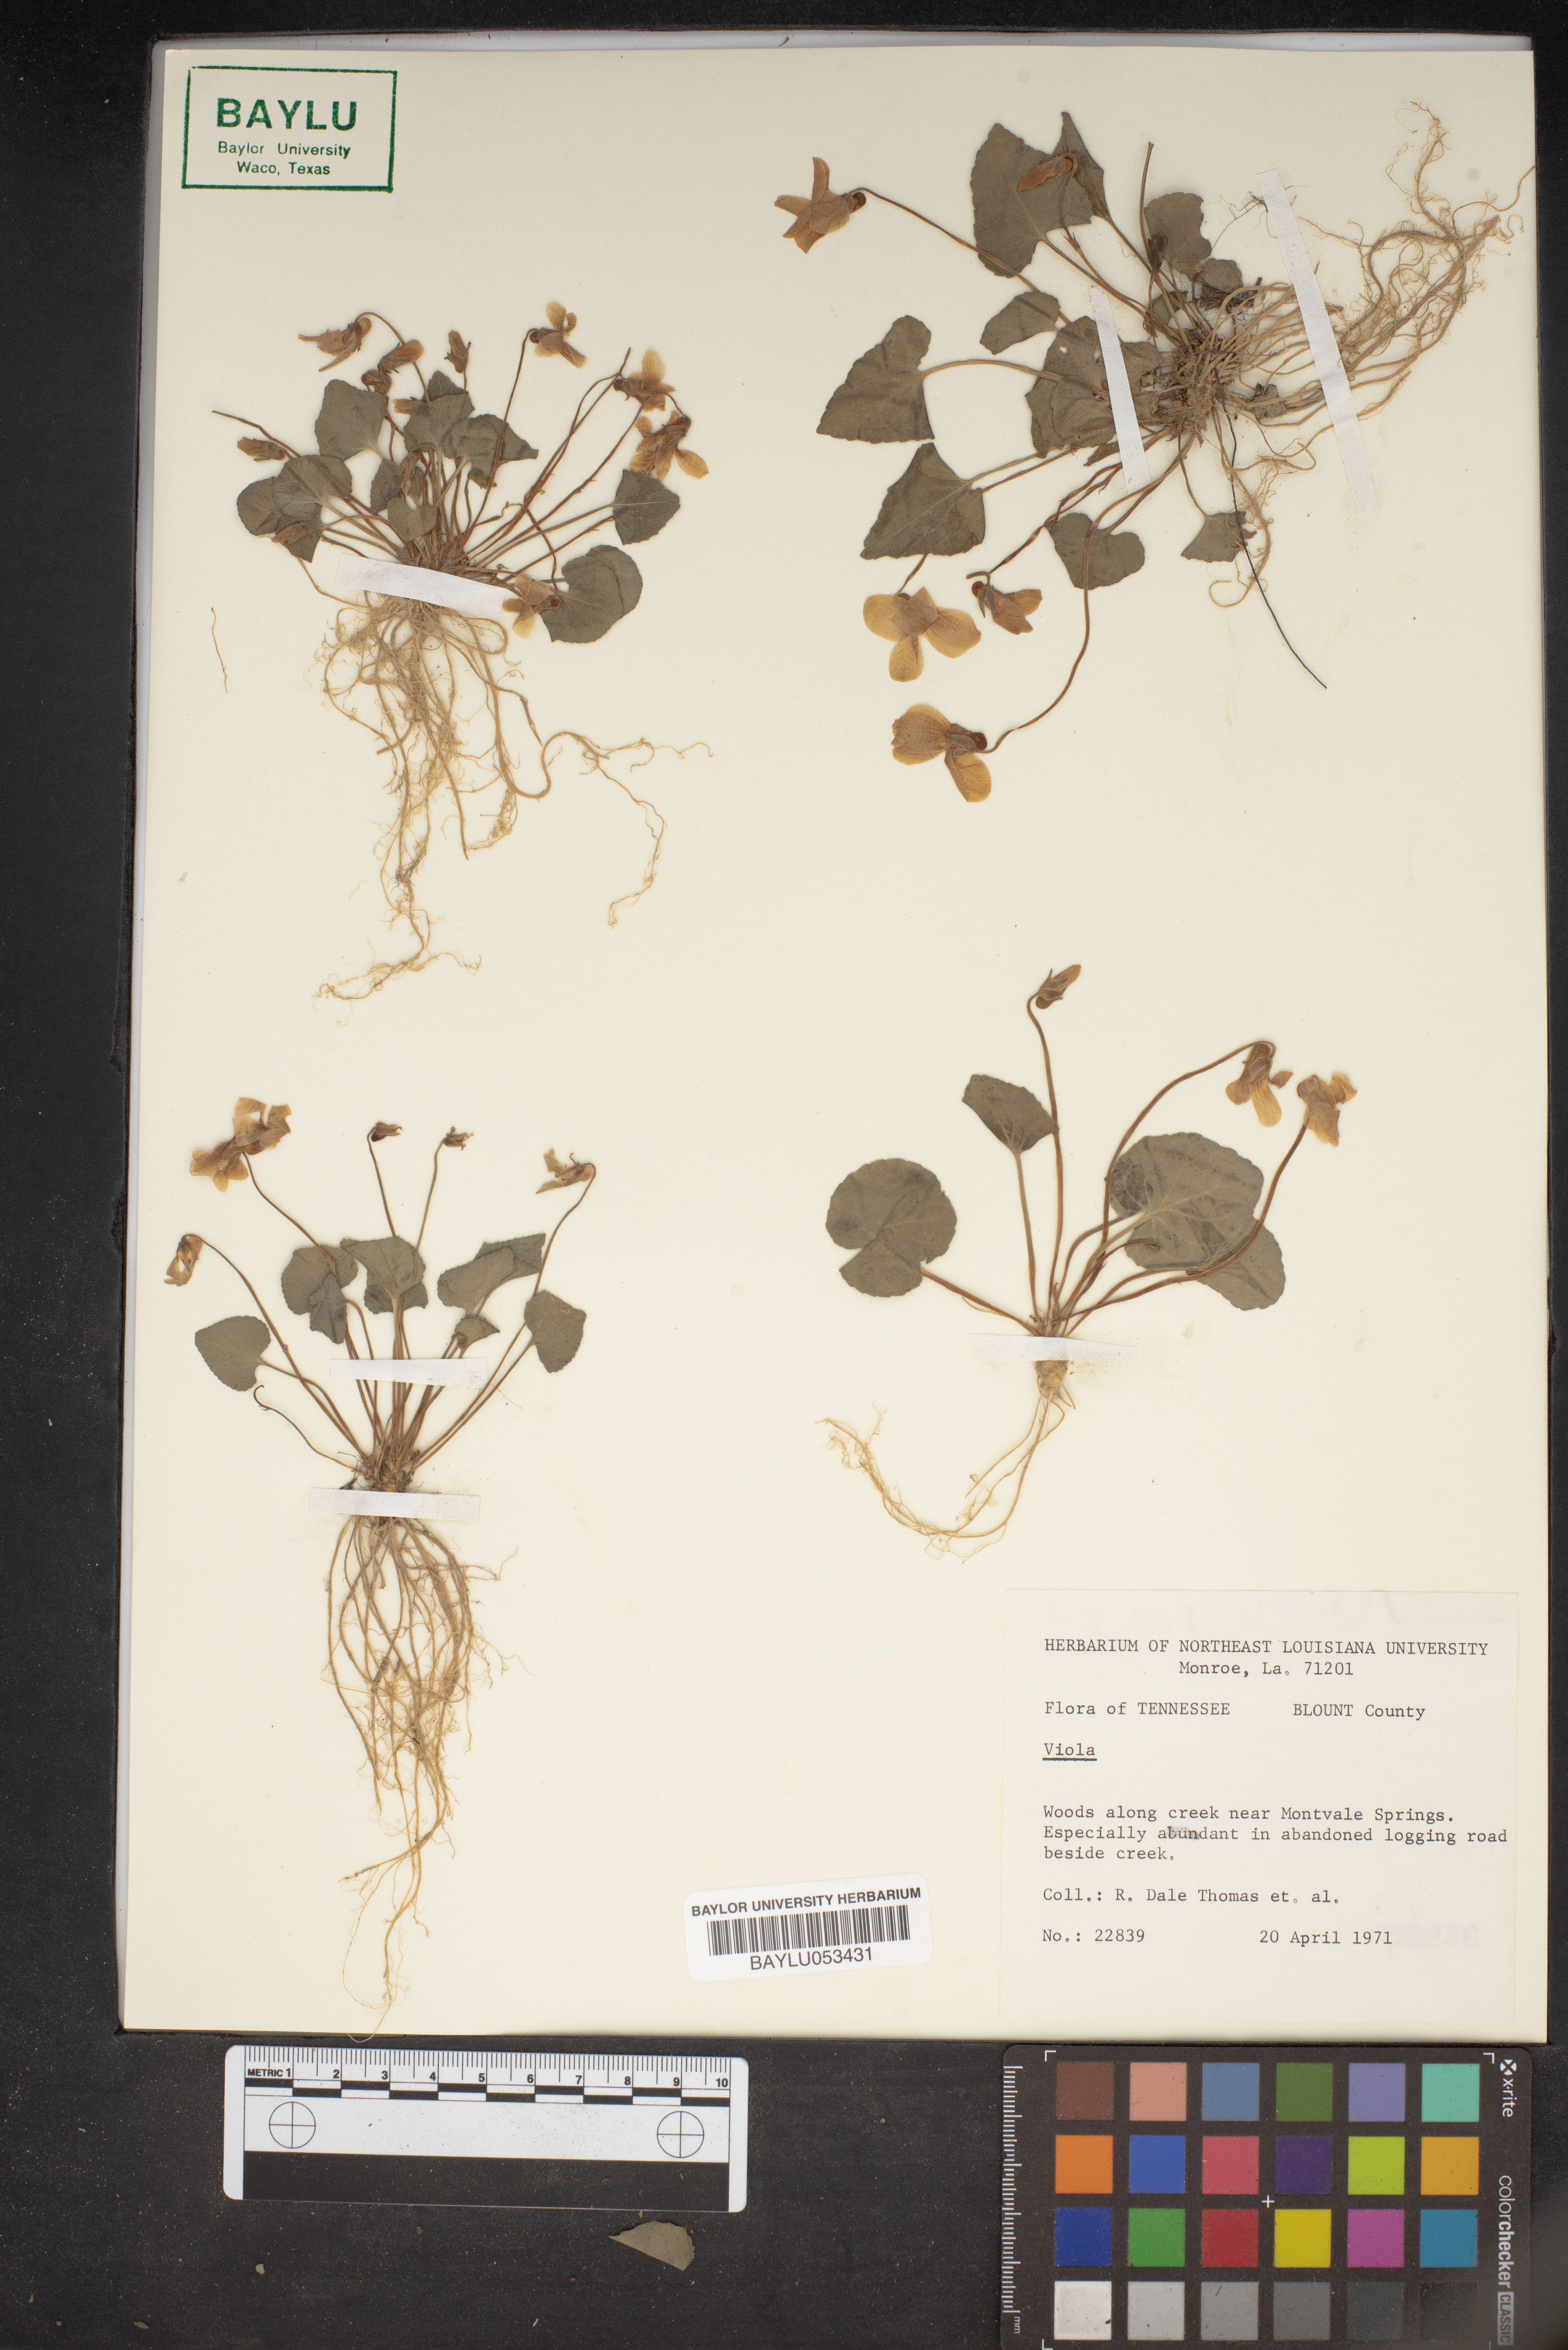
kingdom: Plantae
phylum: Tracheophyta
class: Magnoliopsida
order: Malpighiales
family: Violaceae
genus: Viola
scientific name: Viola
